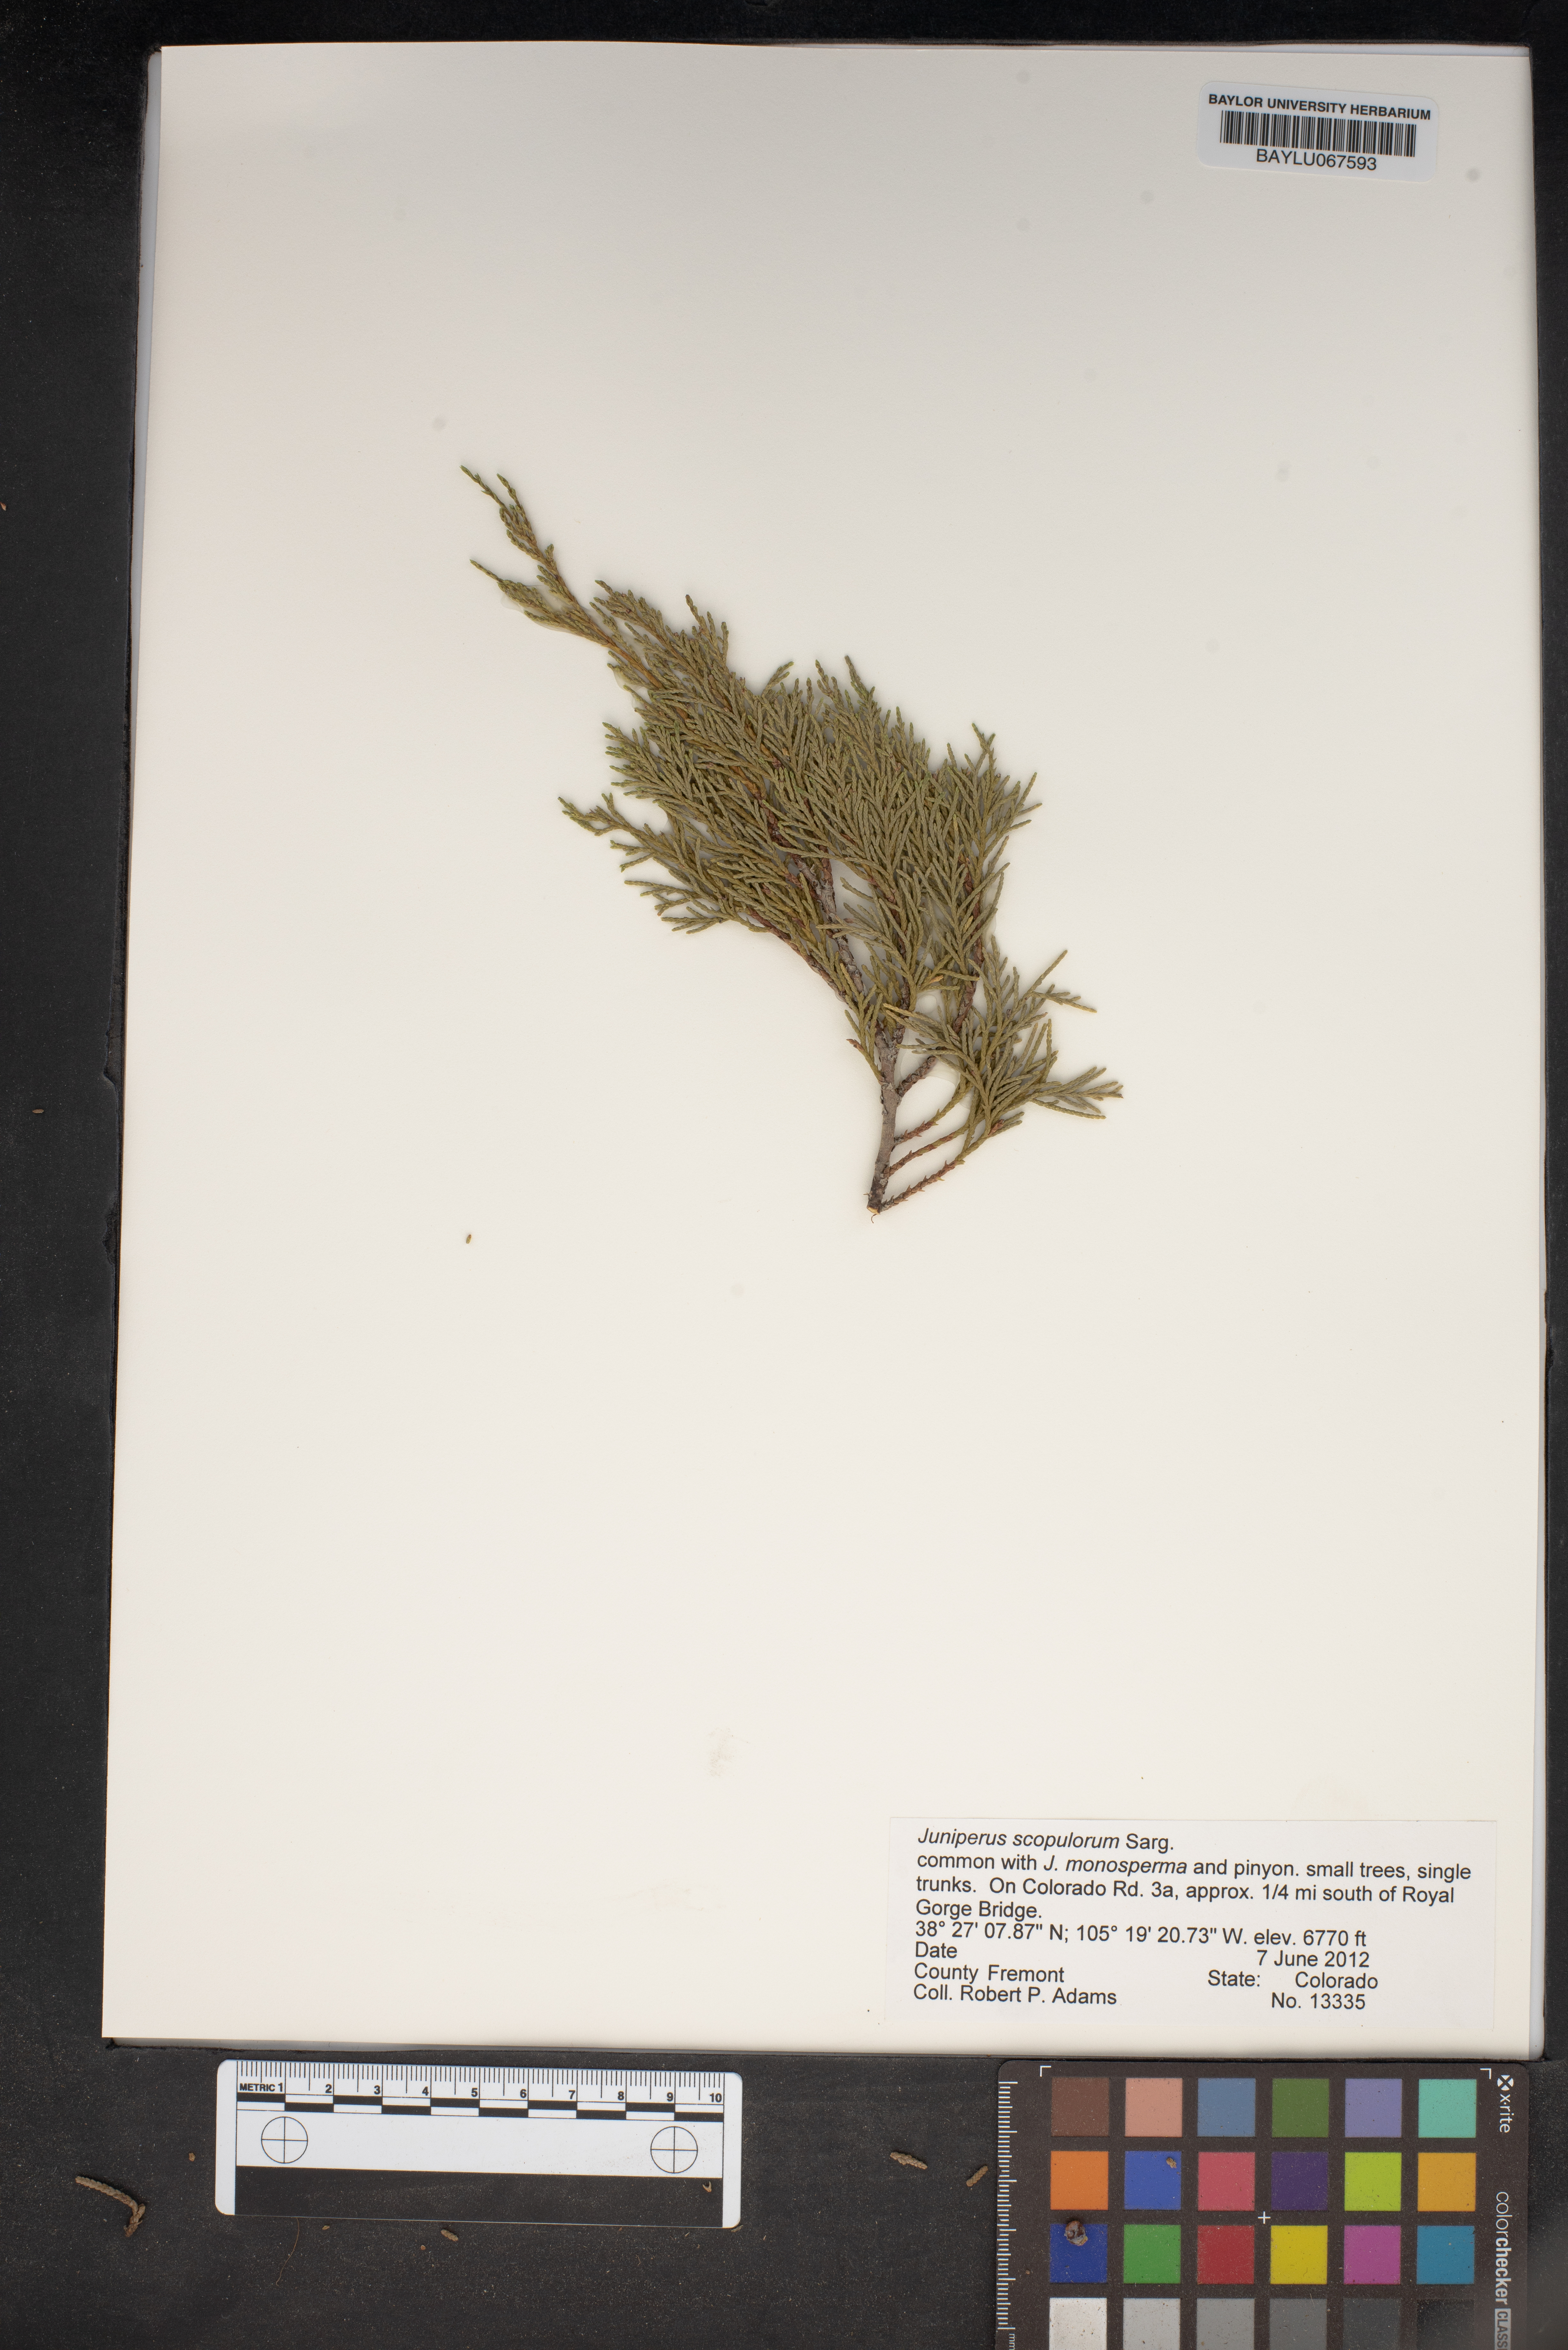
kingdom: Plantae
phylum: Tracheophyta
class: Pinopsida
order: Pinales
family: Cupressaceae
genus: Juniperus
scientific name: Juniperus scopulorum
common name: Rocky mountain juniper
